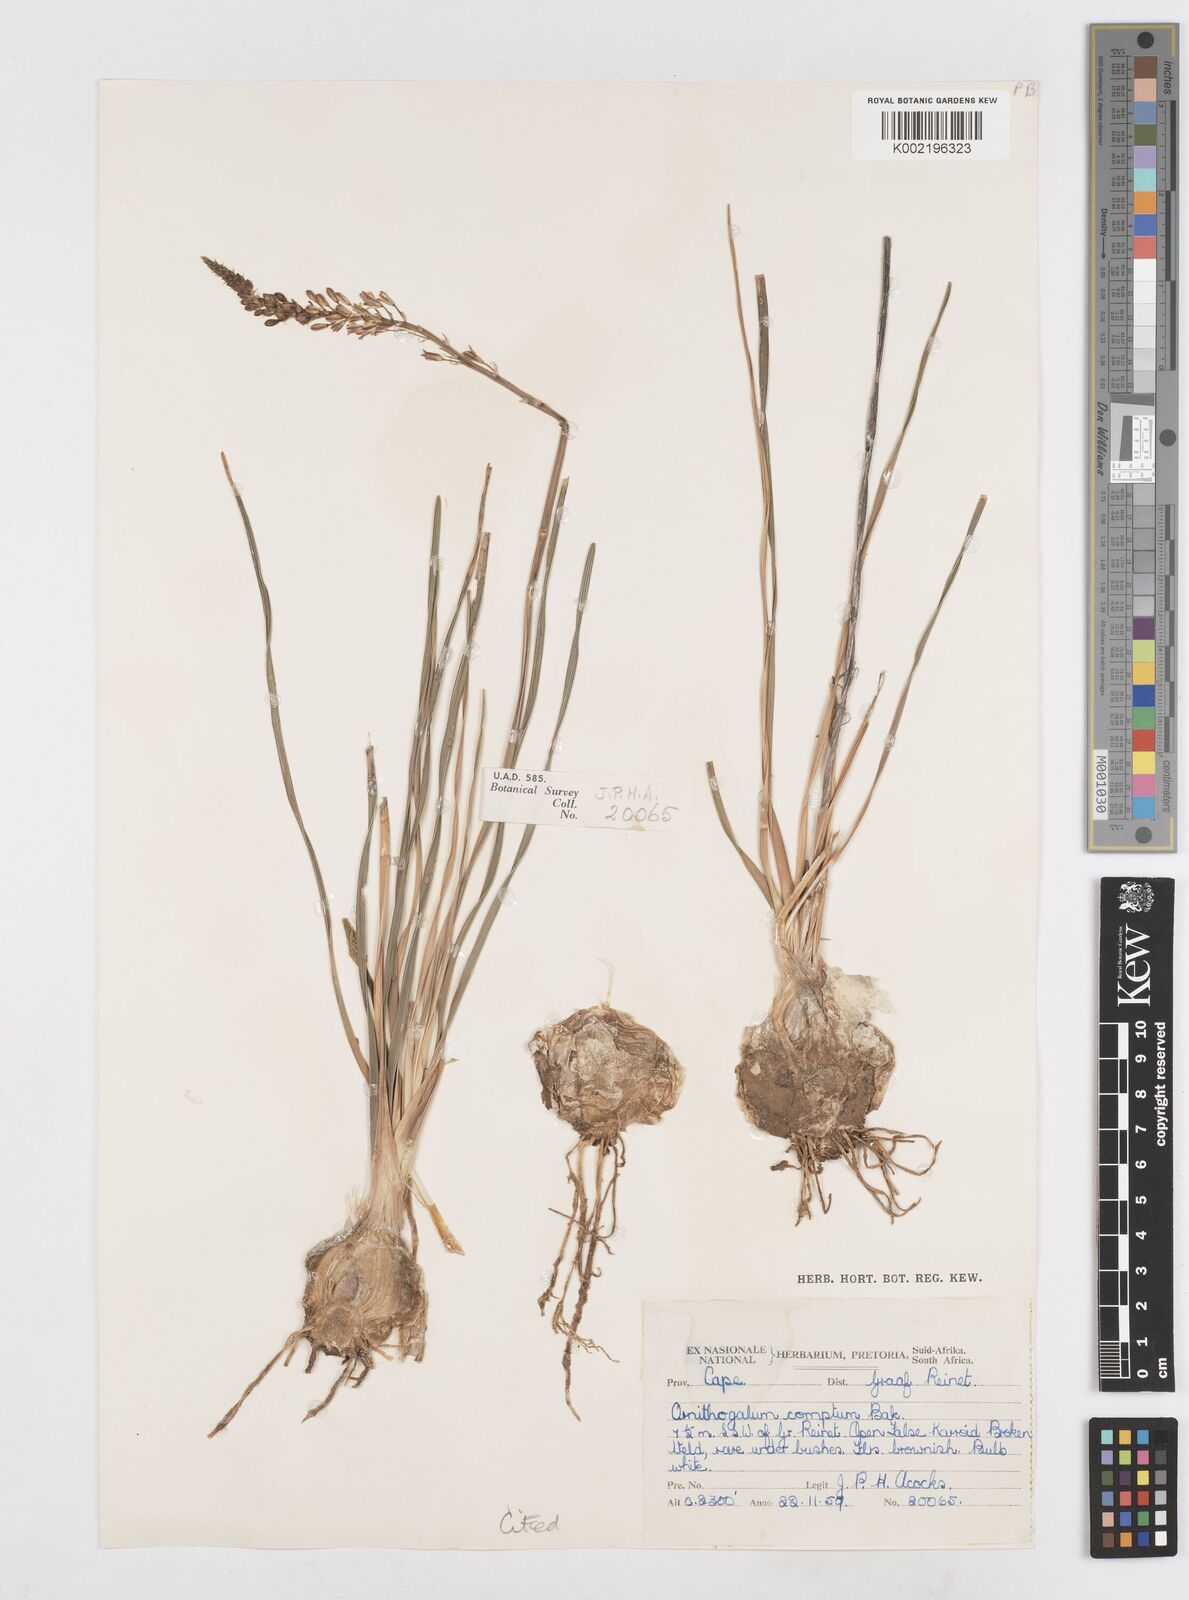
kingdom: Plantae
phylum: Tracheophyta
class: Liliopsida
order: Asparagales
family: Asparagaceae
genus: Ornithogalum
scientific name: Ornithogalum juncifolium
